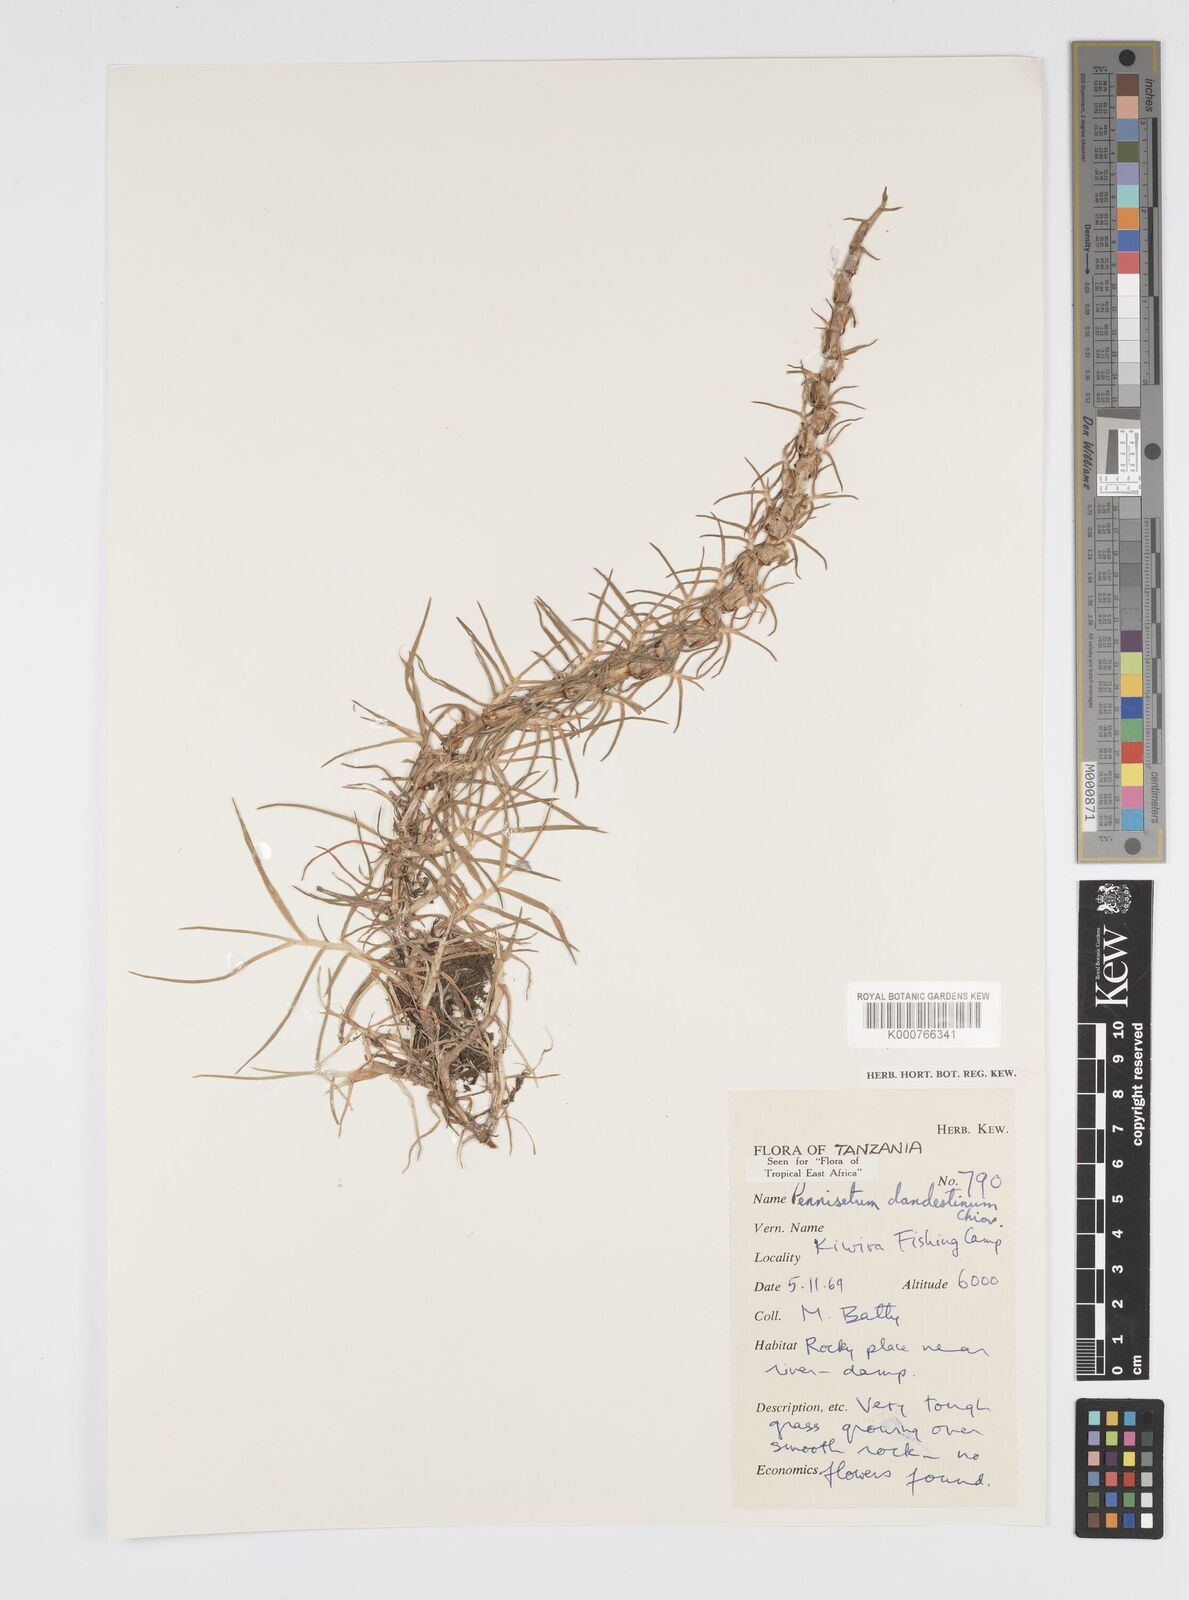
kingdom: Plantae
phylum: Tracheophyta
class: Liliopsida
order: Poales
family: Poaceae
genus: Cenchrus
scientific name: Cenchrus clandestinus
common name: Kikuyugrass
